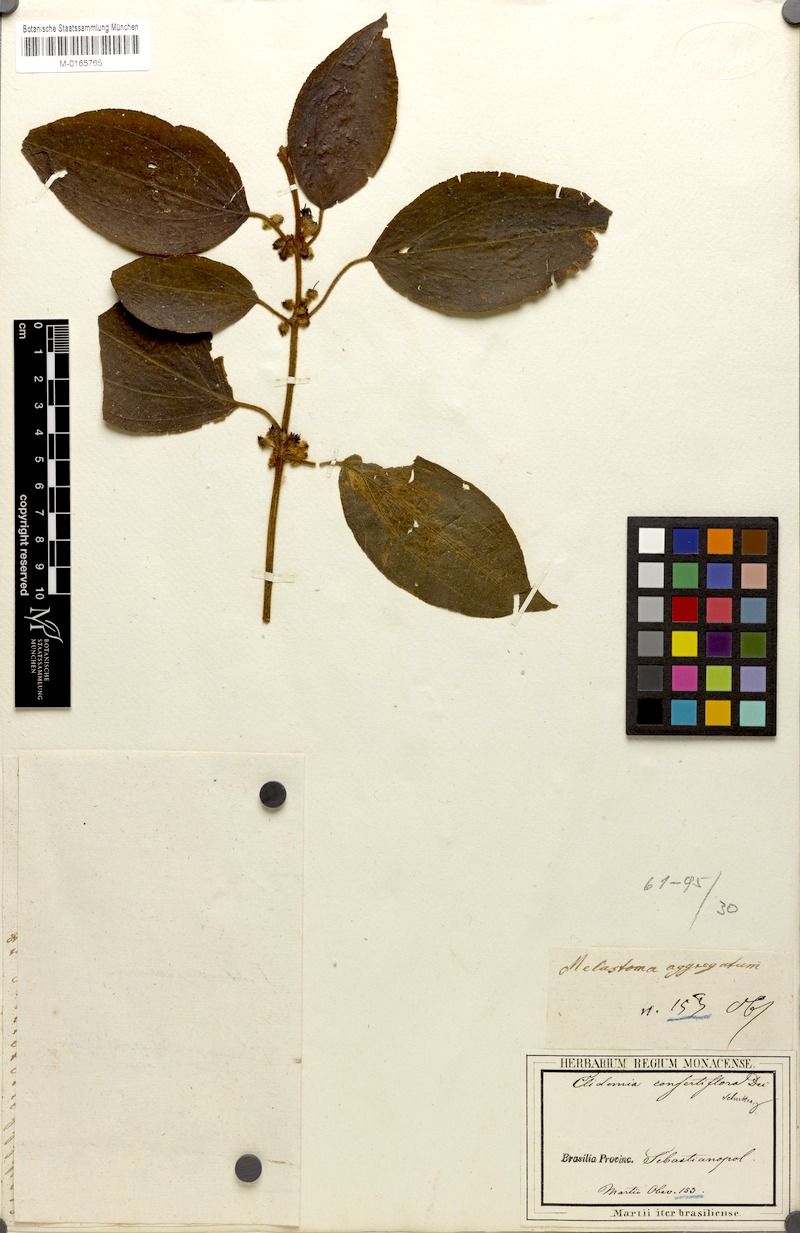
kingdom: Plantae
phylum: Tracheophyta
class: Magnoliopsida
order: Myrtales
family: Melastomataceae
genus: Miconia
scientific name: Miconia rubella
